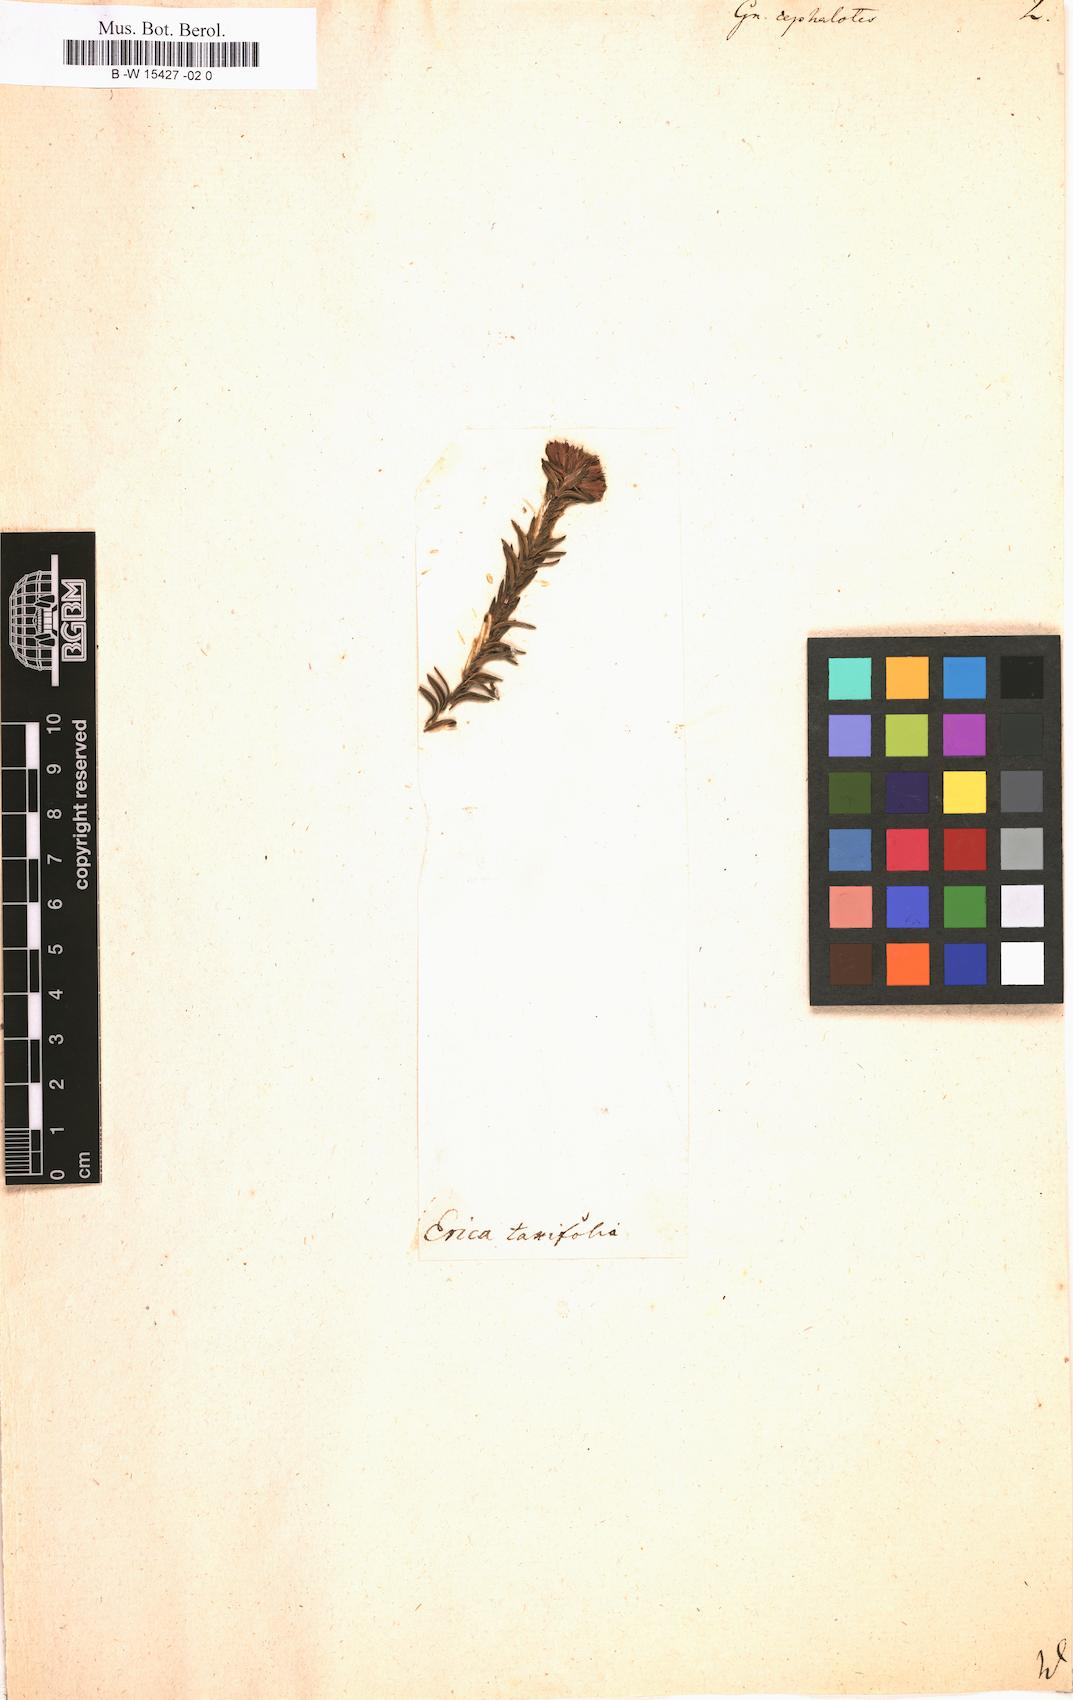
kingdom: Plantae
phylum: Tracheophyta
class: Magnoliopsida
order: Asterales
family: Asteraceae
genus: Metalasia
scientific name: Metalasia cephalotes
